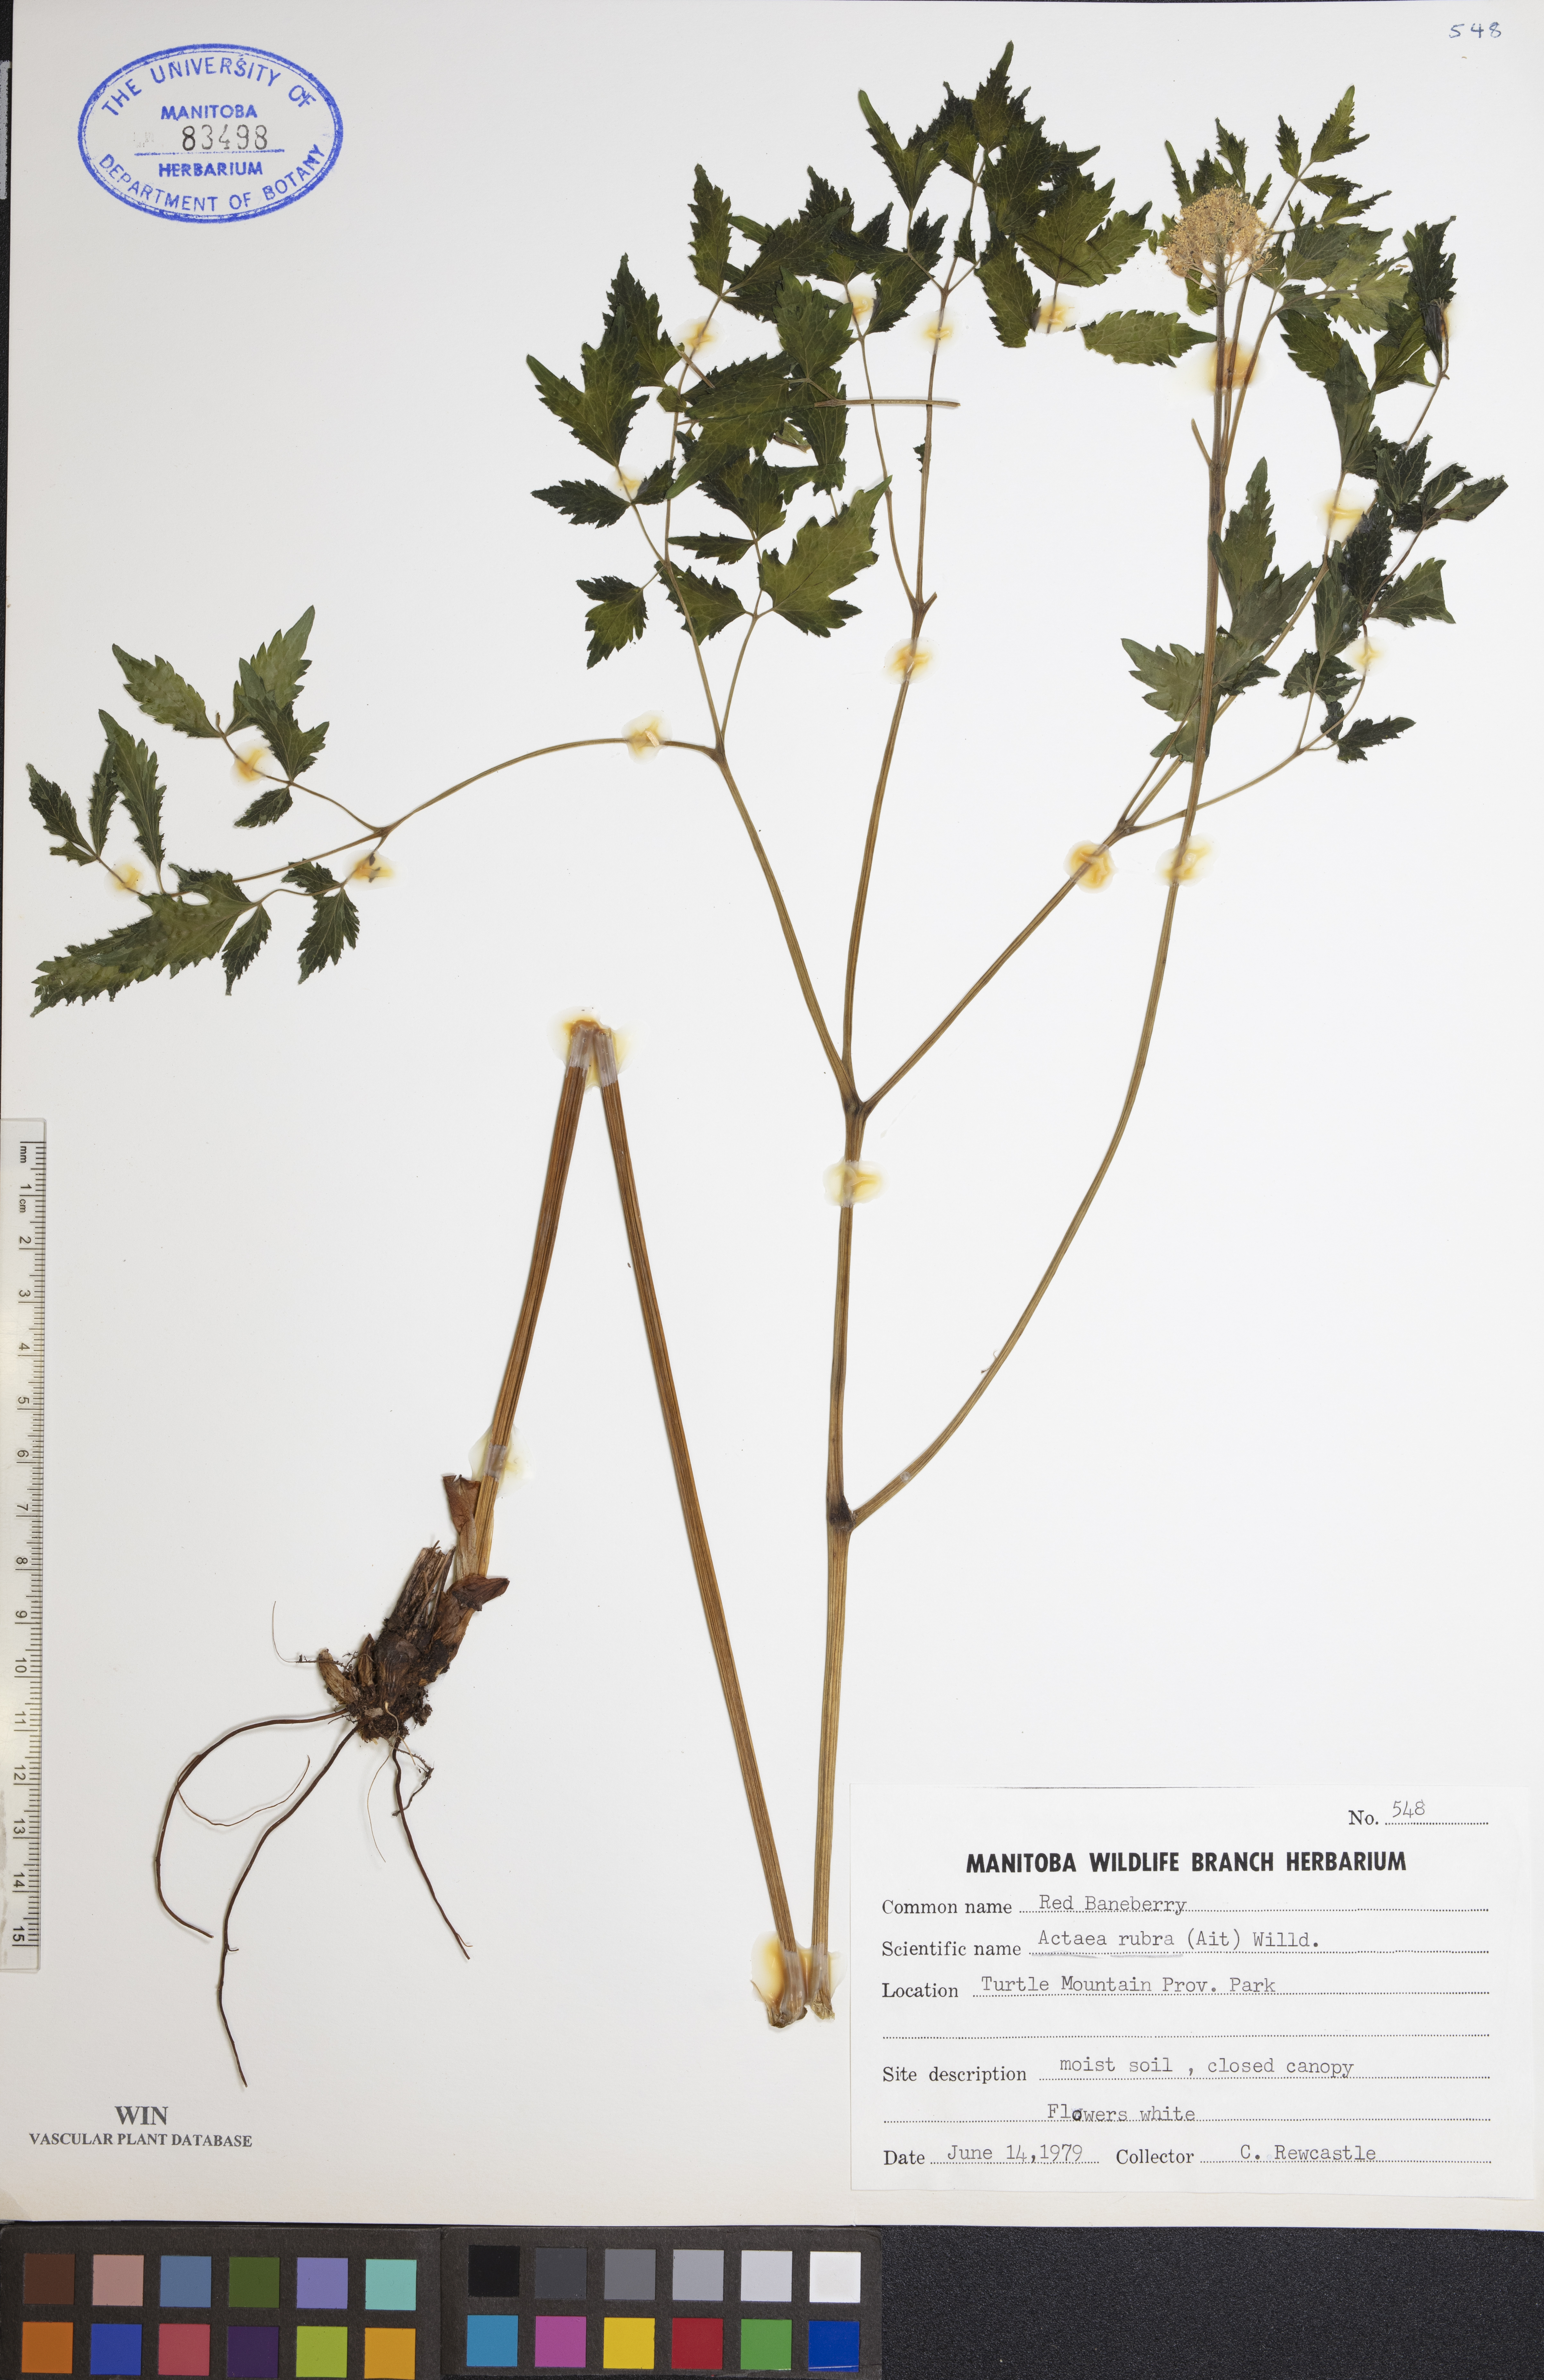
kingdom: Plantae
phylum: Tracheophyta
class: Magnoliopsida
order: Ranunculales
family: Ranunculaceae
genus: Actaea
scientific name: Actaea rubra
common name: Red baneberry
